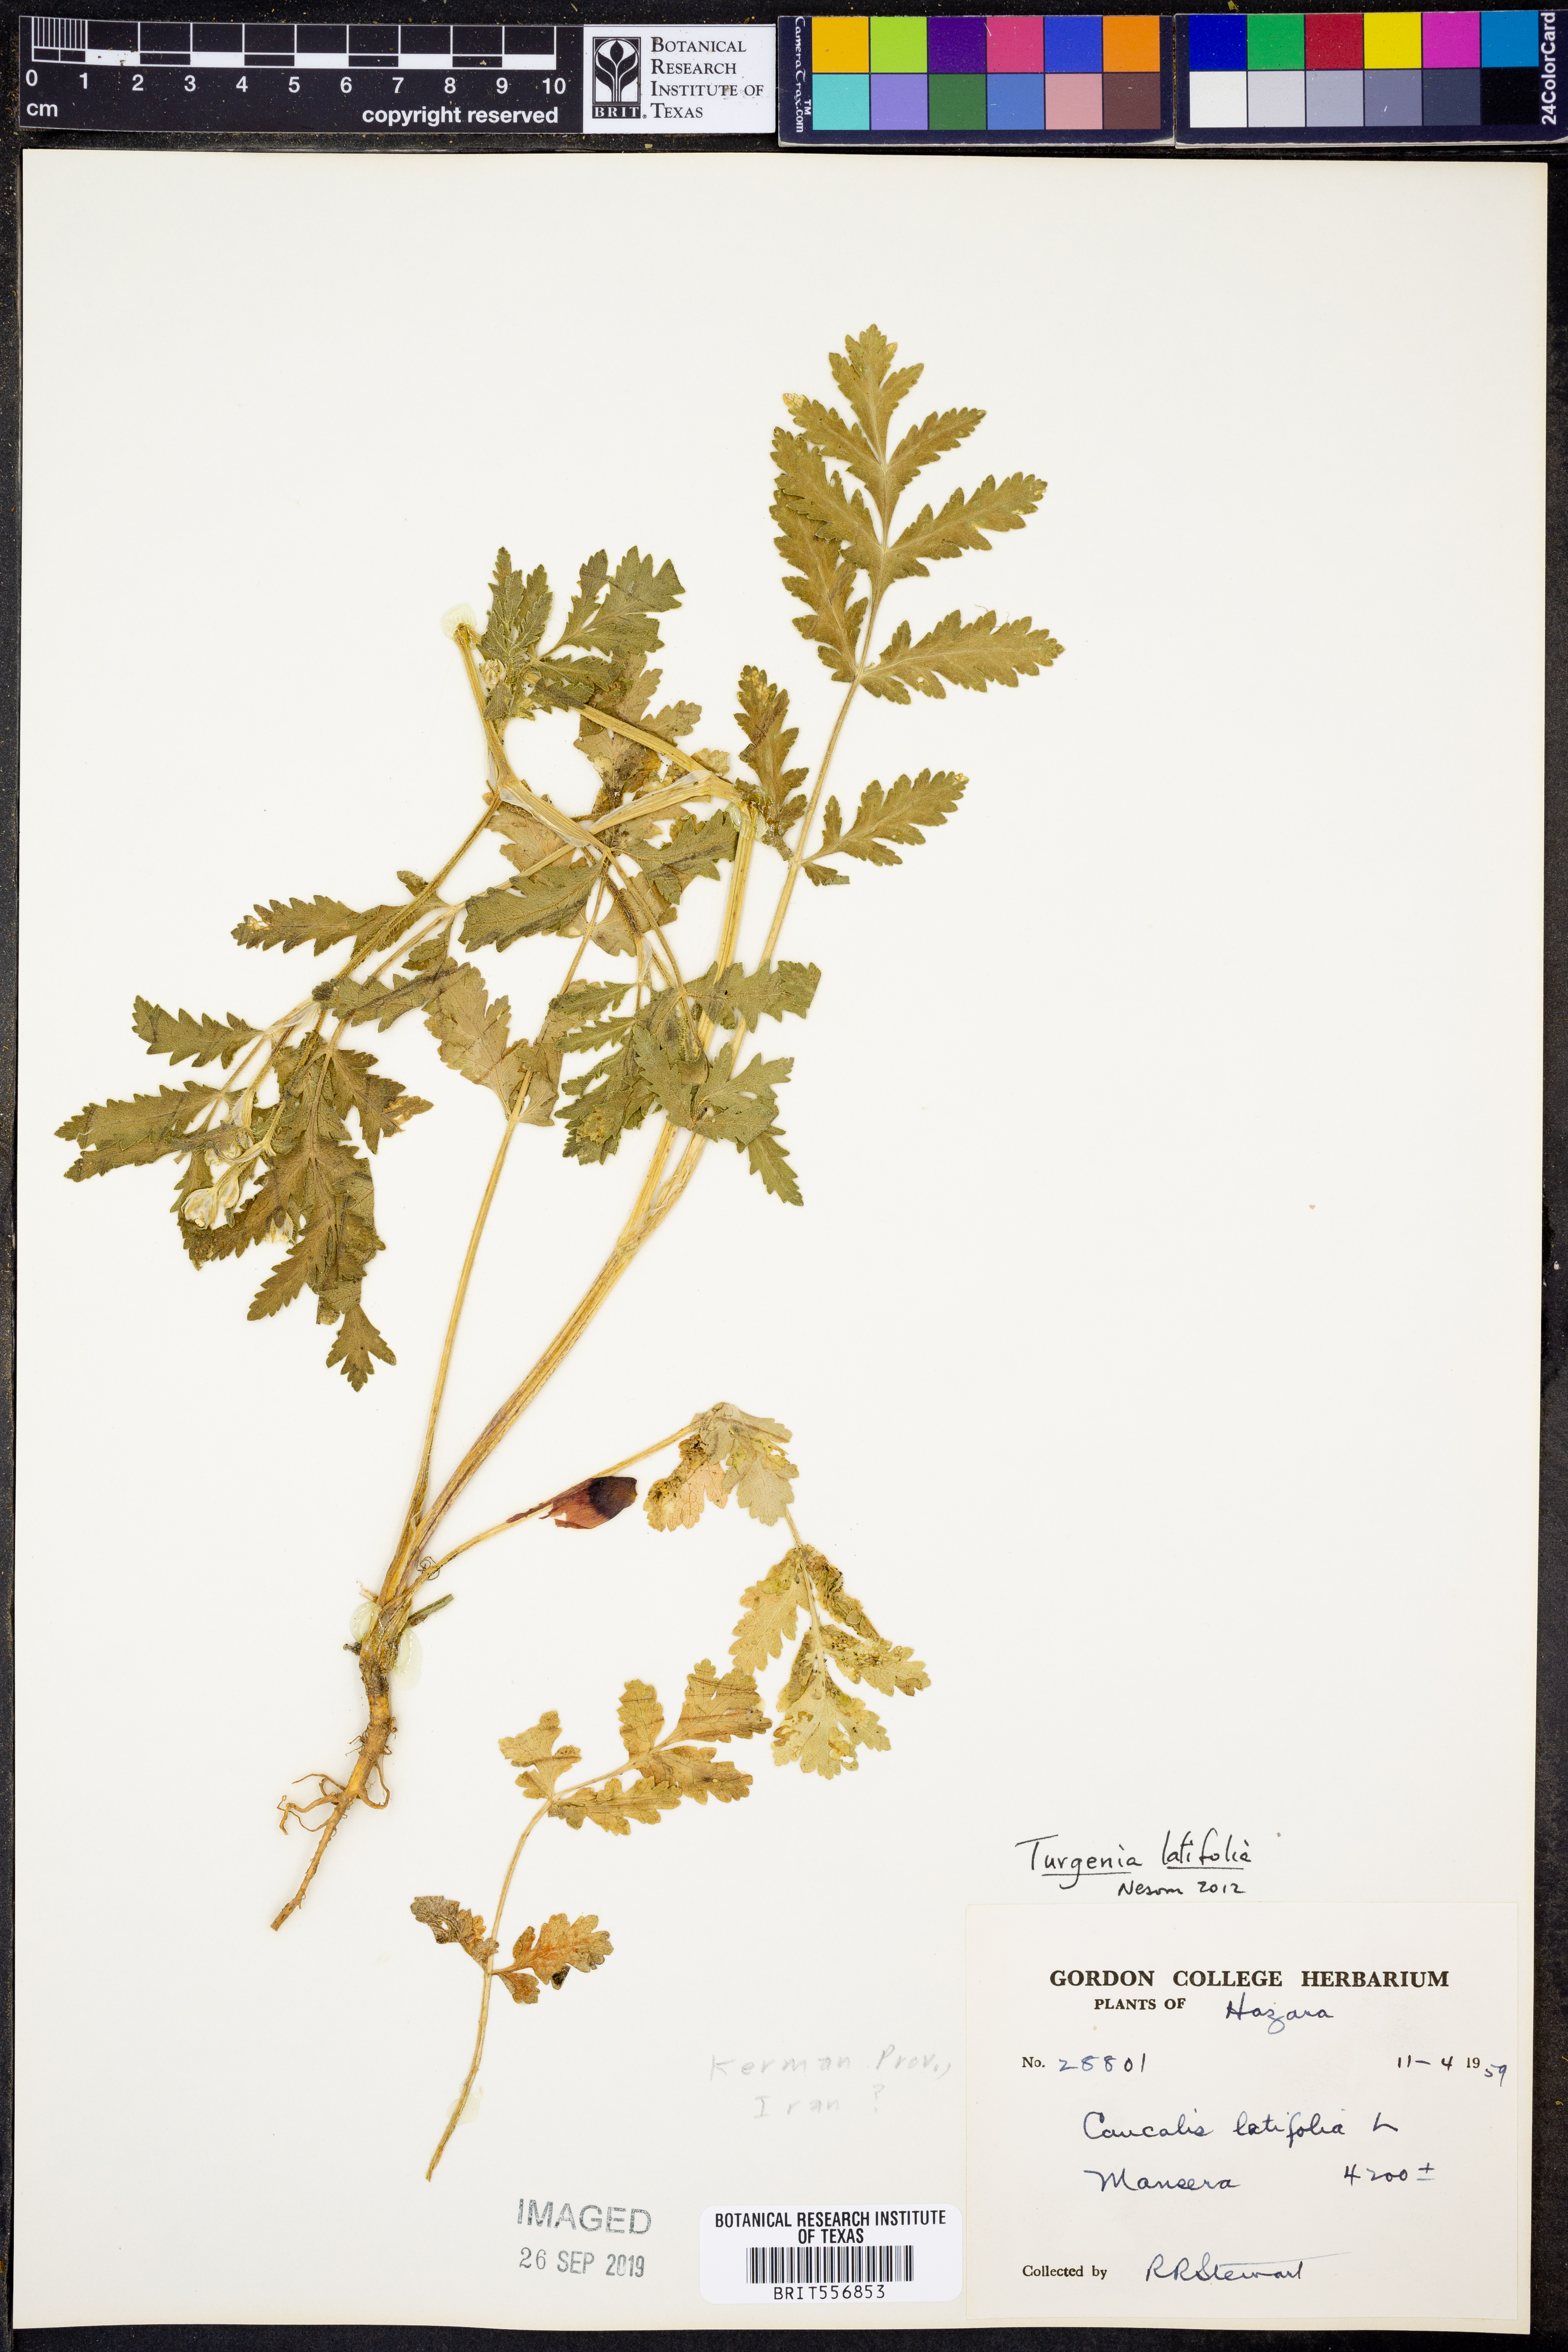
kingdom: Plantae
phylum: Tracheophyta
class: Magnoliopsida
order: Apiales
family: Apiaceae
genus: Turgenia
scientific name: Turgenia latifolia
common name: Greater bur-parsley
